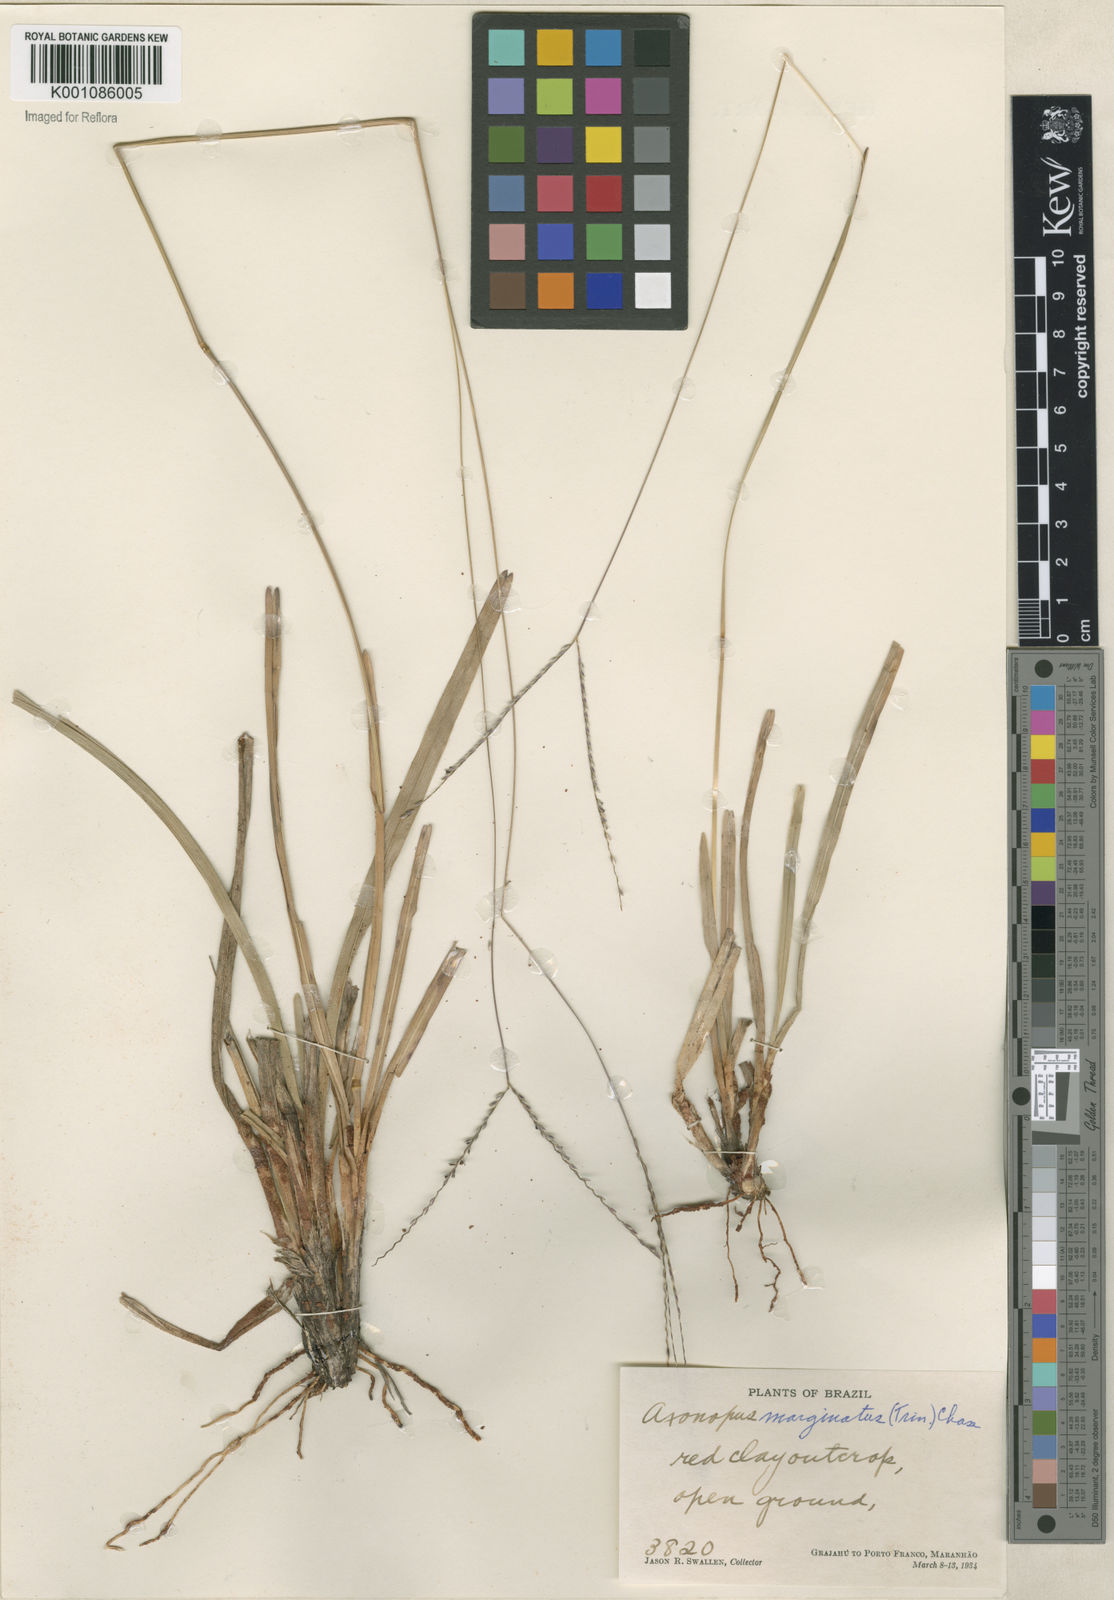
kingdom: Plantae
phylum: Tracheophyta
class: Liliopsida
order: Poales
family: Poaceae
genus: Axonopus
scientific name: Axonopus
